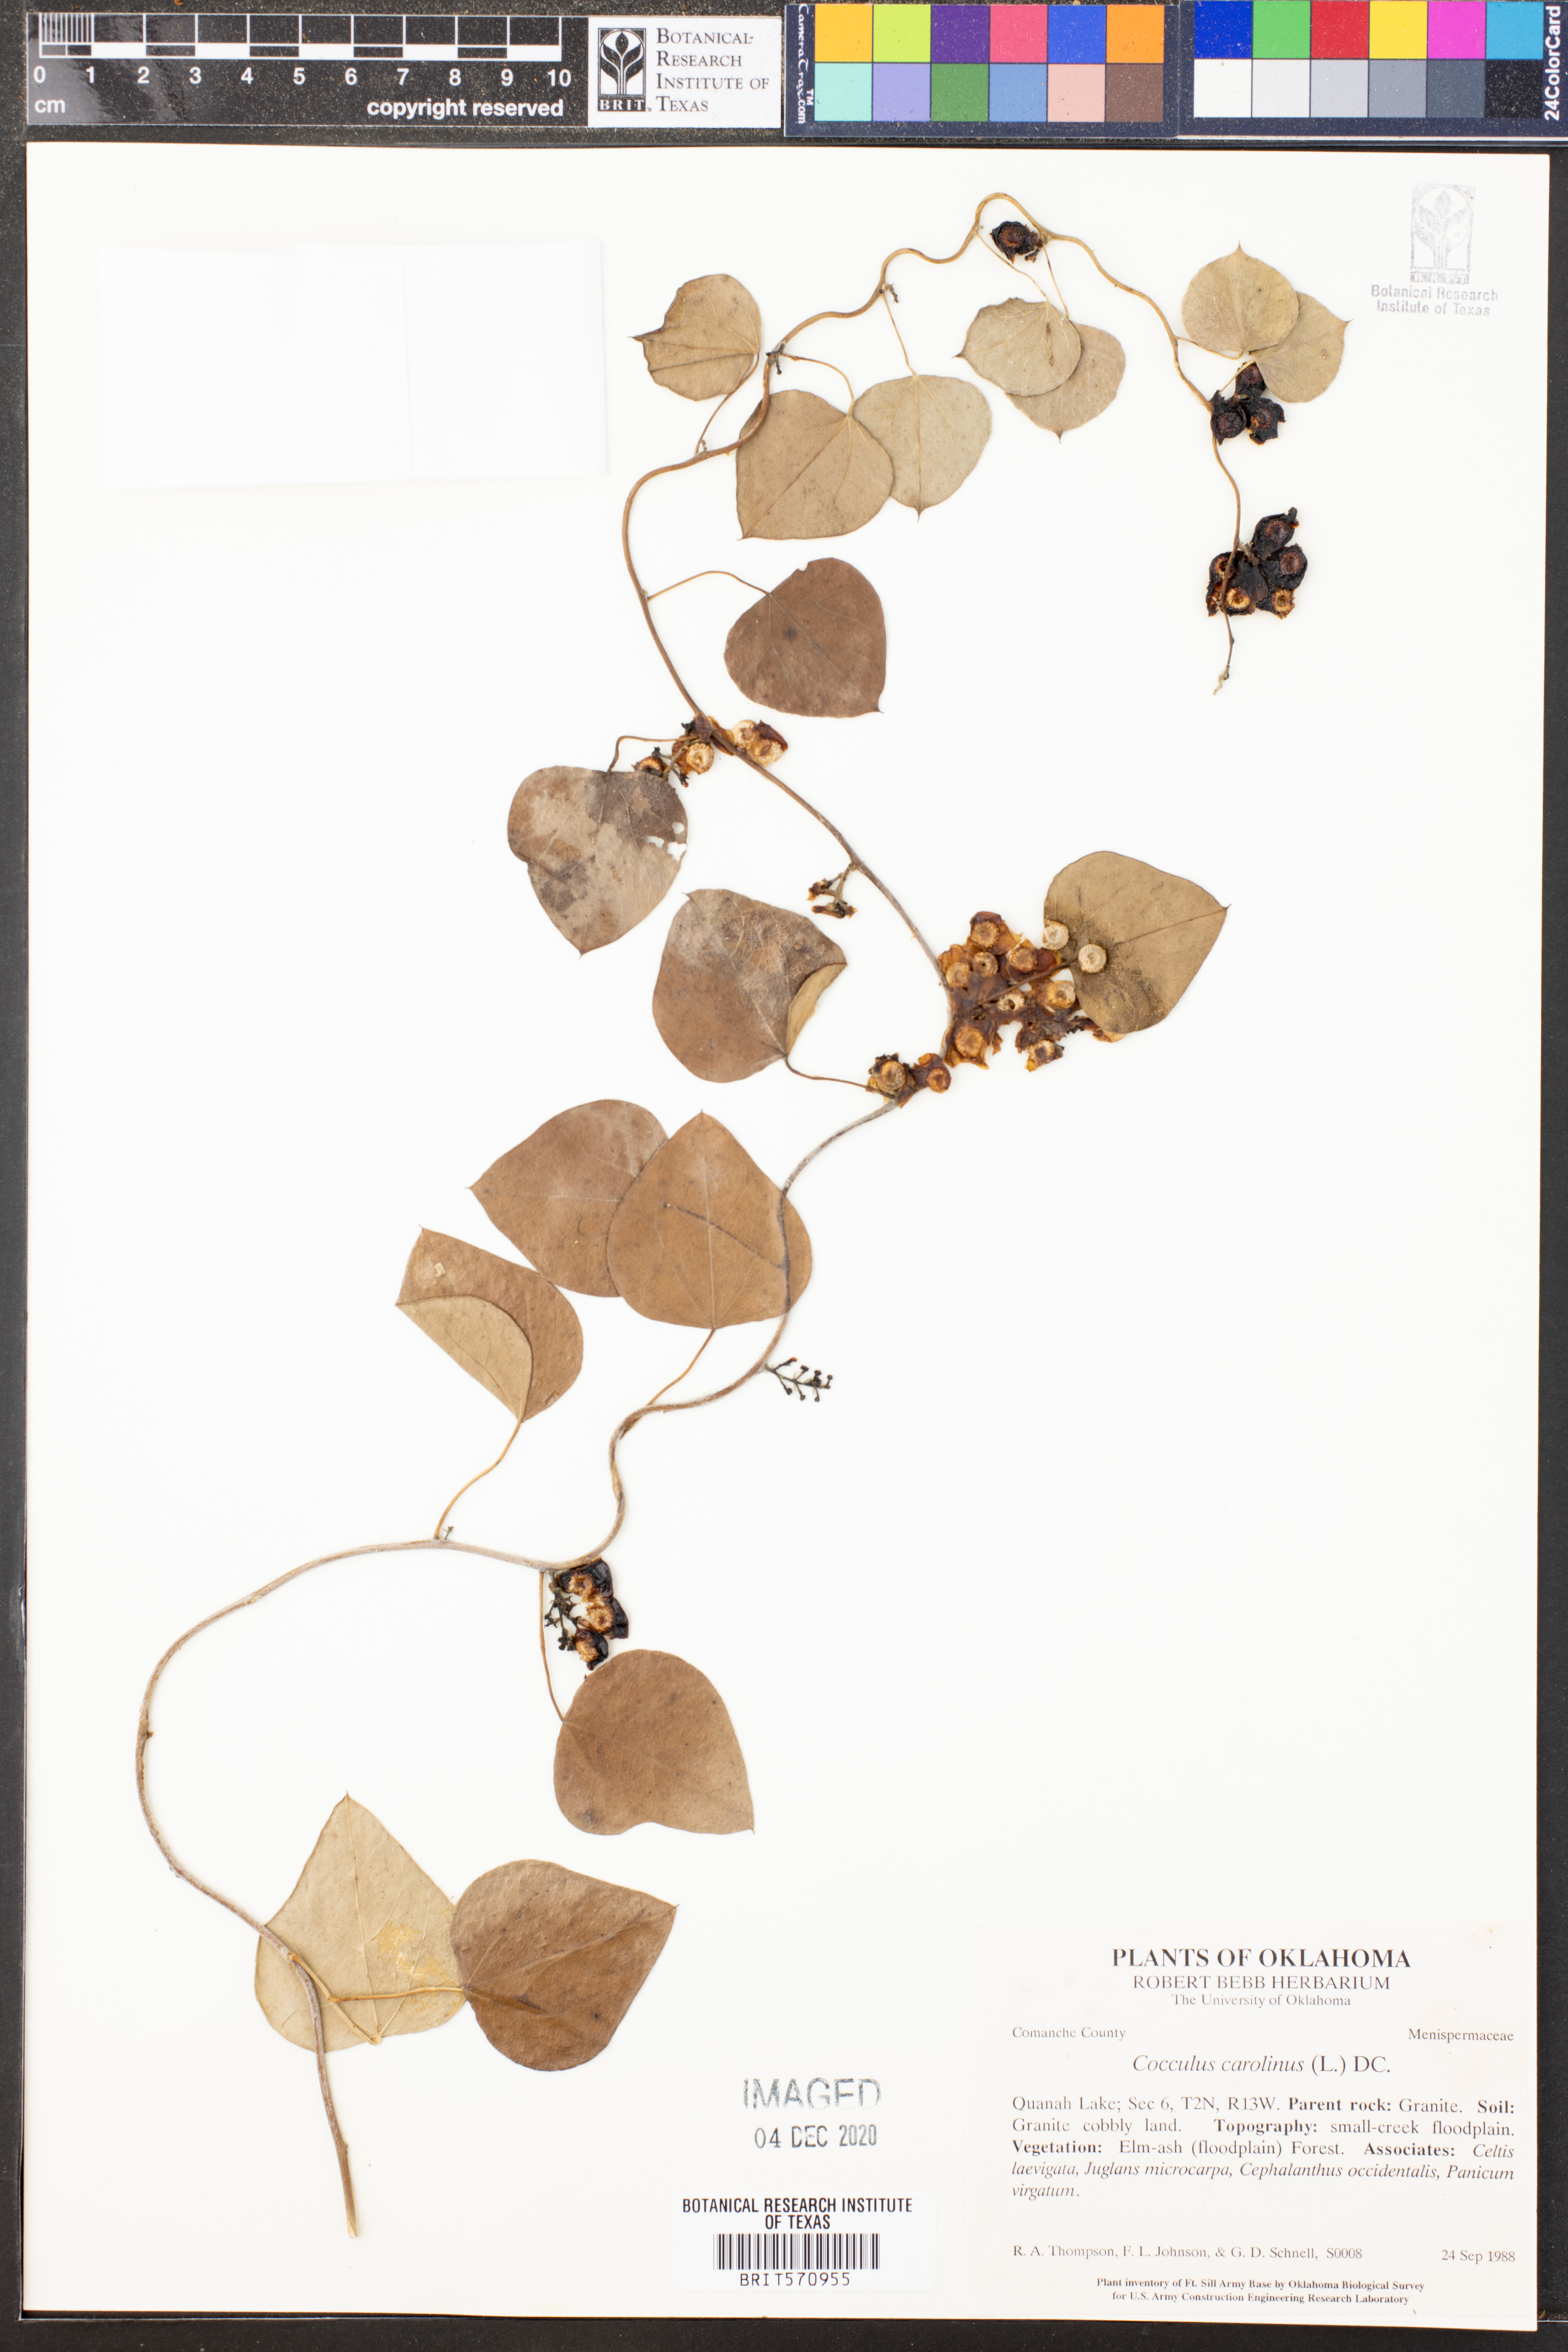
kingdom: Plantae
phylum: Tracheophyta
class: Magnoliopsida
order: Ranunculales
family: Menispermaceae
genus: Cocculus
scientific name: Cocculus carolinus
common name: Carolina moonseed
